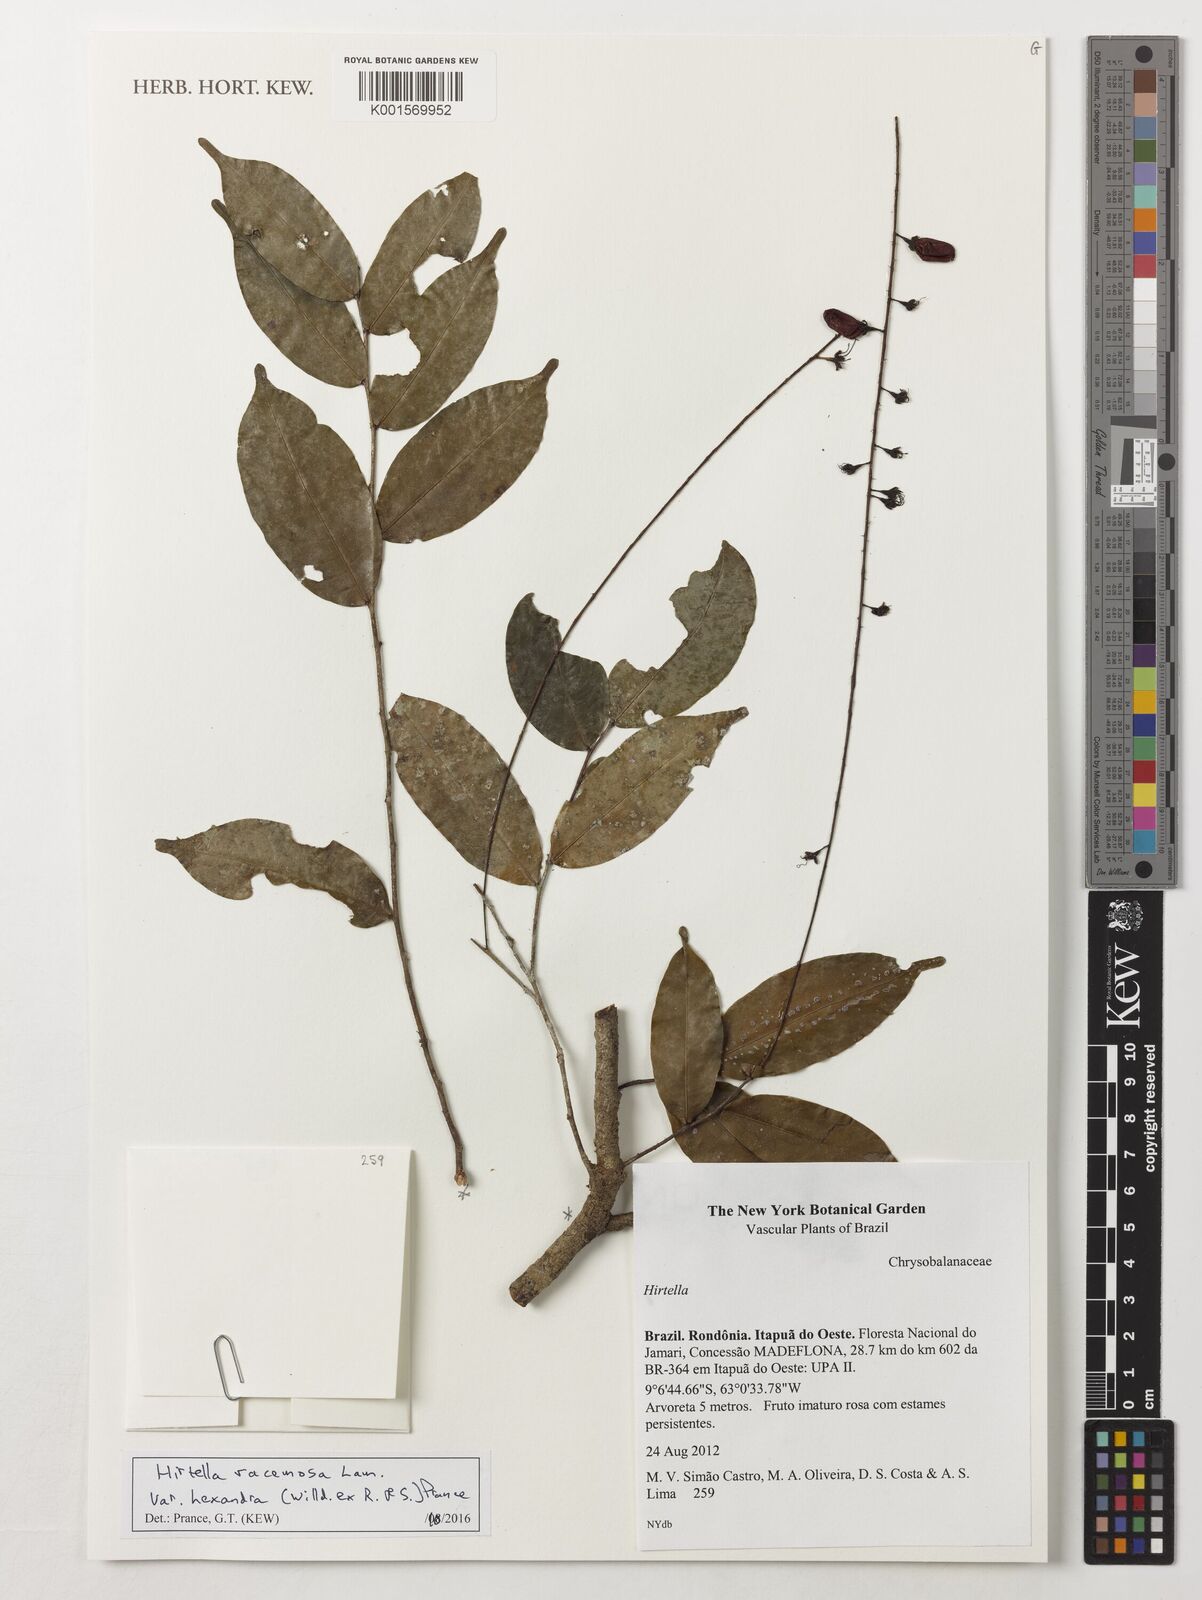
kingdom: Plantae
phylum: Tracheophyta
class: Magnoliopsida
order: Malpighiales
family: Chrysobalanaceae
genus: Hirtella
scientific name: Hirtella racemosa
